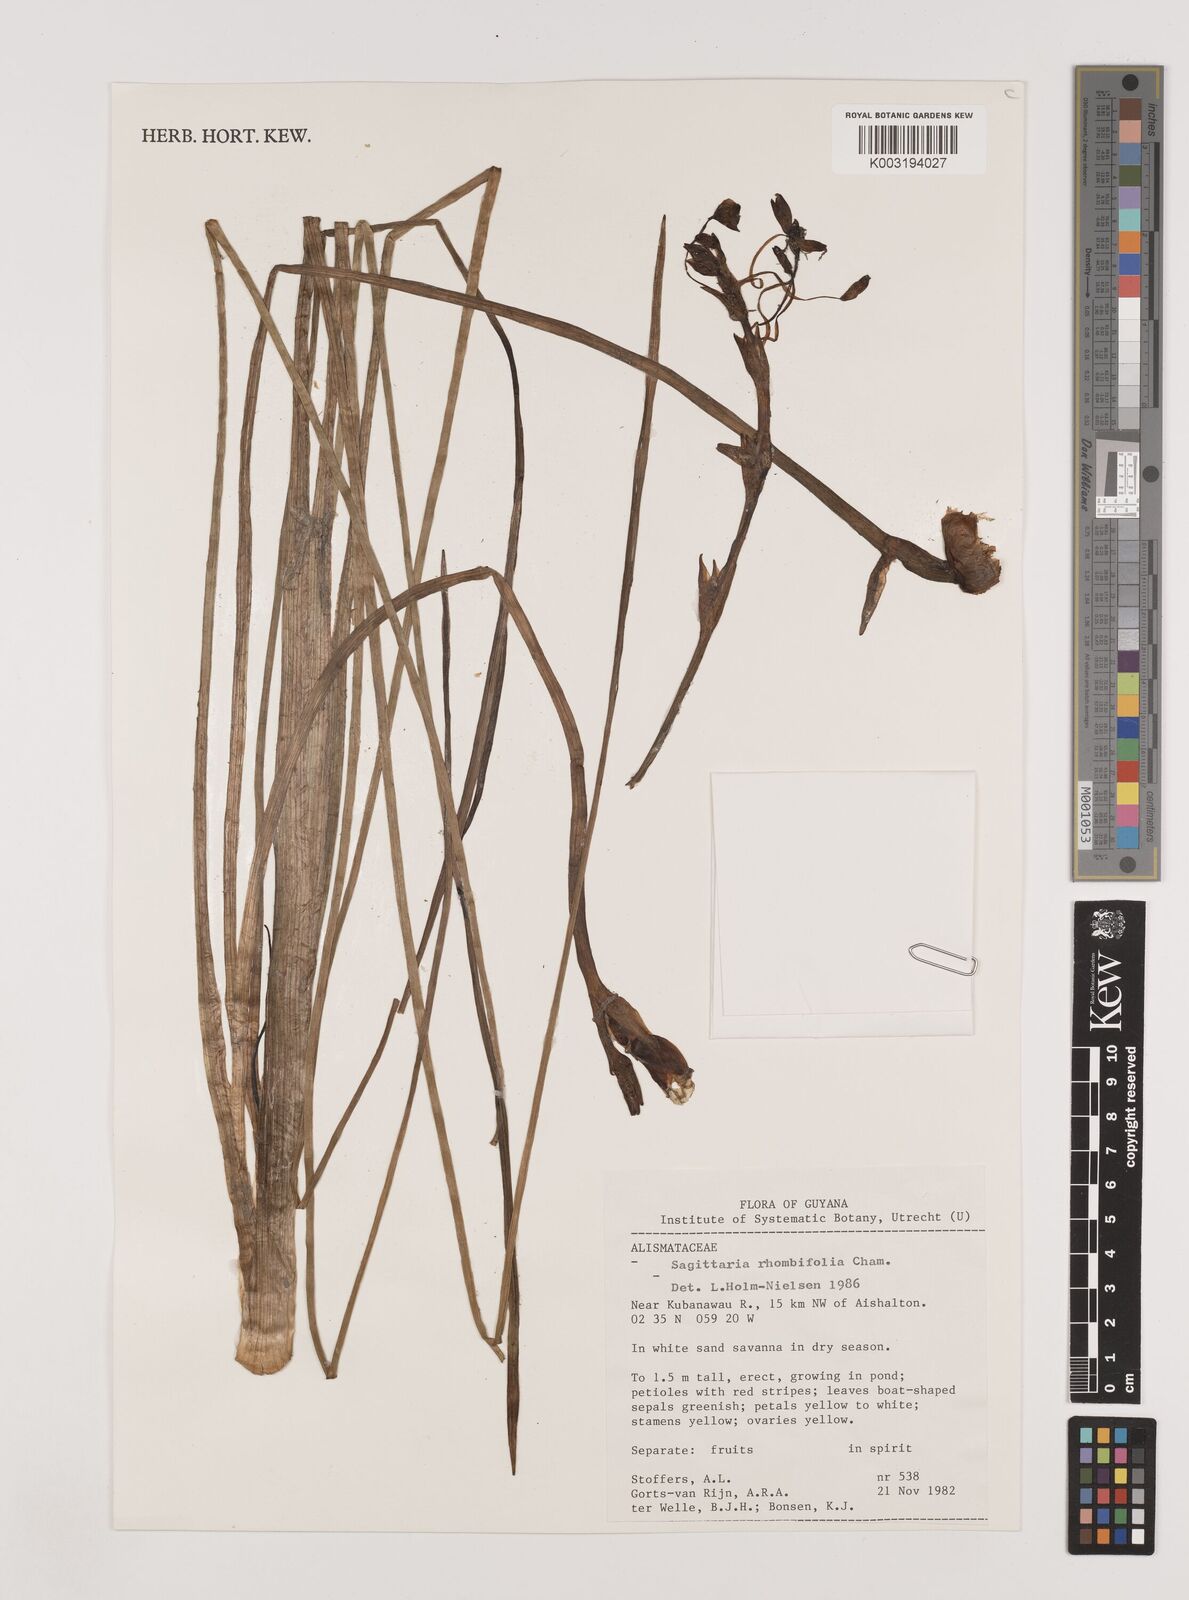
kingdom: Plantae
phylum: Tracheophyta
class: Liliopsida
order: Alismatales
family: Alismataceae
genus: Sagittaria
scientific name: Sagittaria rhombifolia
